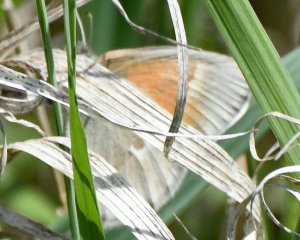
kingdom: Animalia
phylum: Arthropoda
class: Insecta
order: Lepidoptera
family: Nymphalidae
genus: Coenonympha
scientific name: Coenonympha tullia
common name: Large Heath
